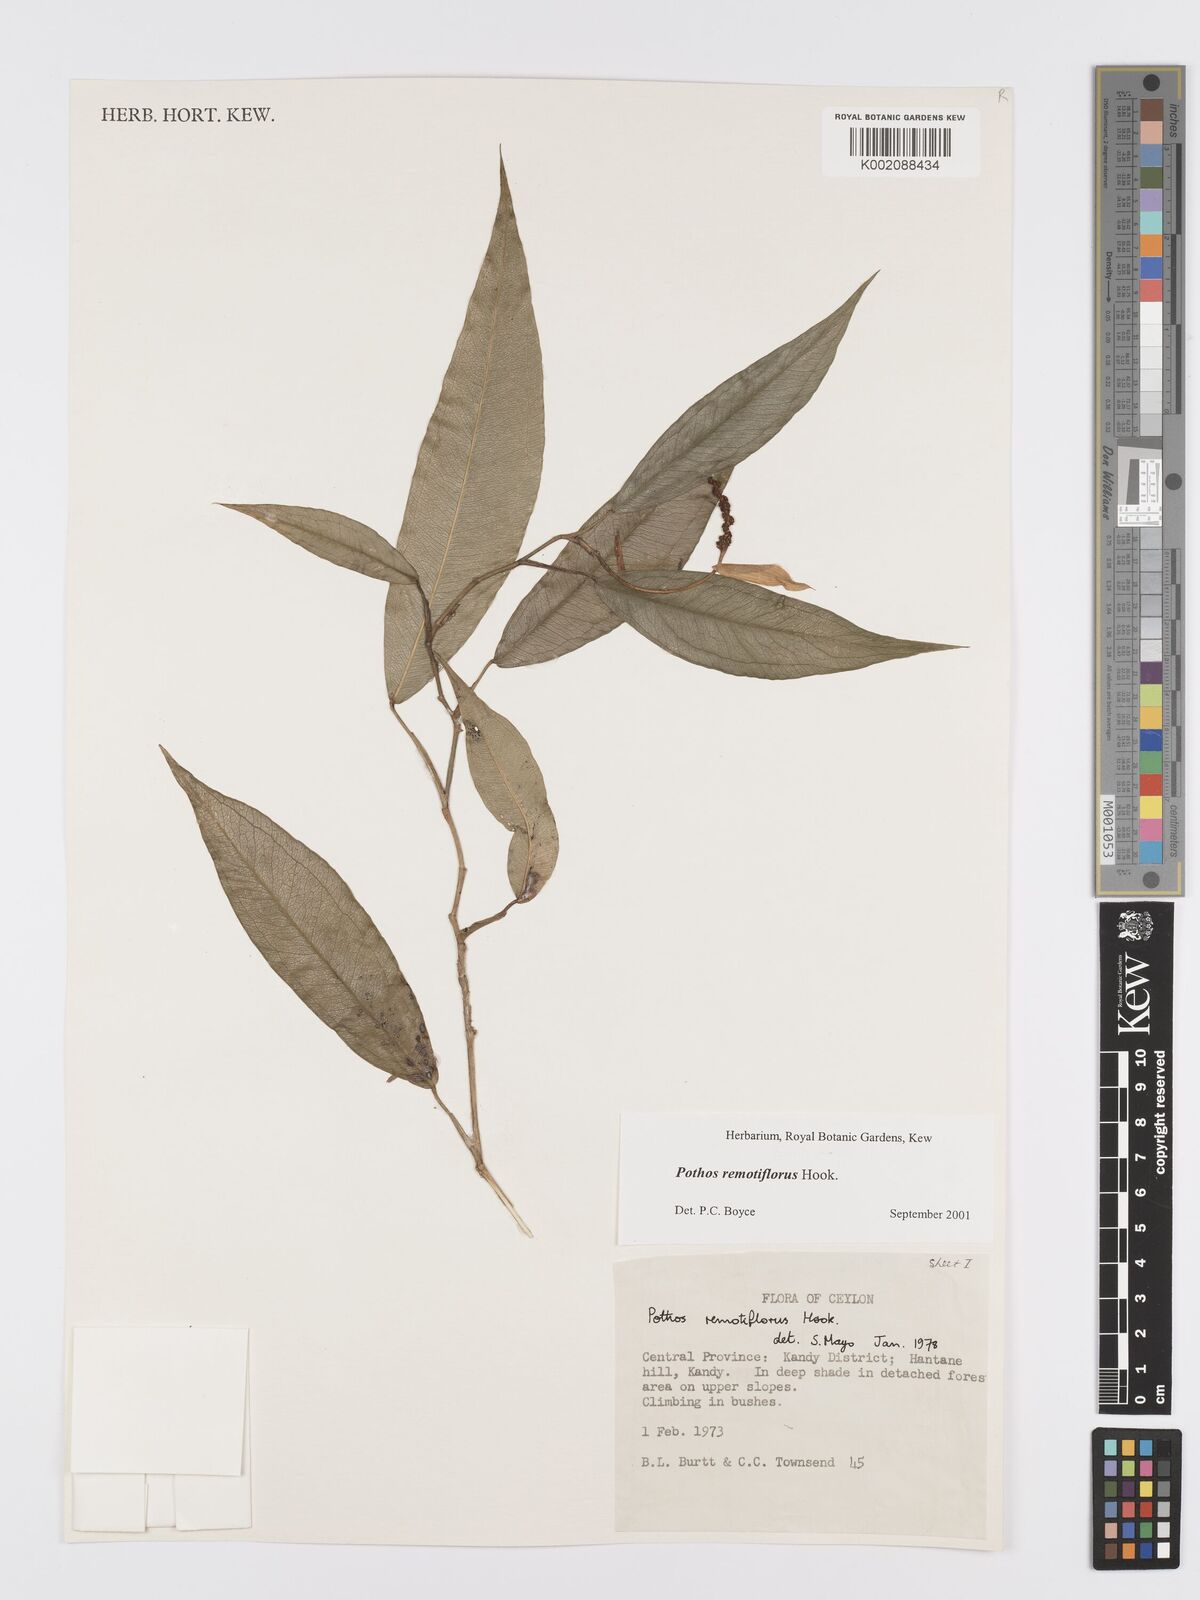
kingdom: Plantae
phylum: Tracheophyta
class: Liliopsida
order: Alismatales
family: Araceae
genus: Pothos
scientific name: Pothos remotiflorus
